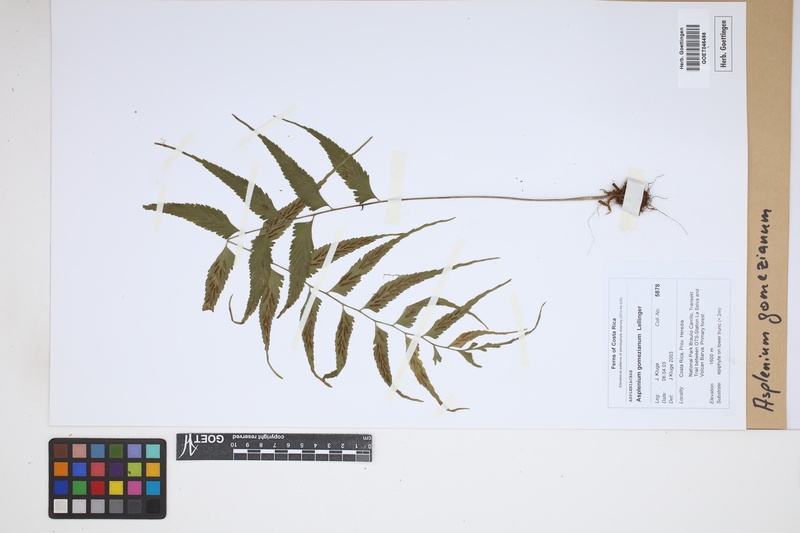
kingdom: Plantae
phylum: Tracheophyta
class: Polypodiopsida
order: Polypodiales
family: Aspleniaceae
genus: Asplenium
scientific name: Asplenium gomezianum
